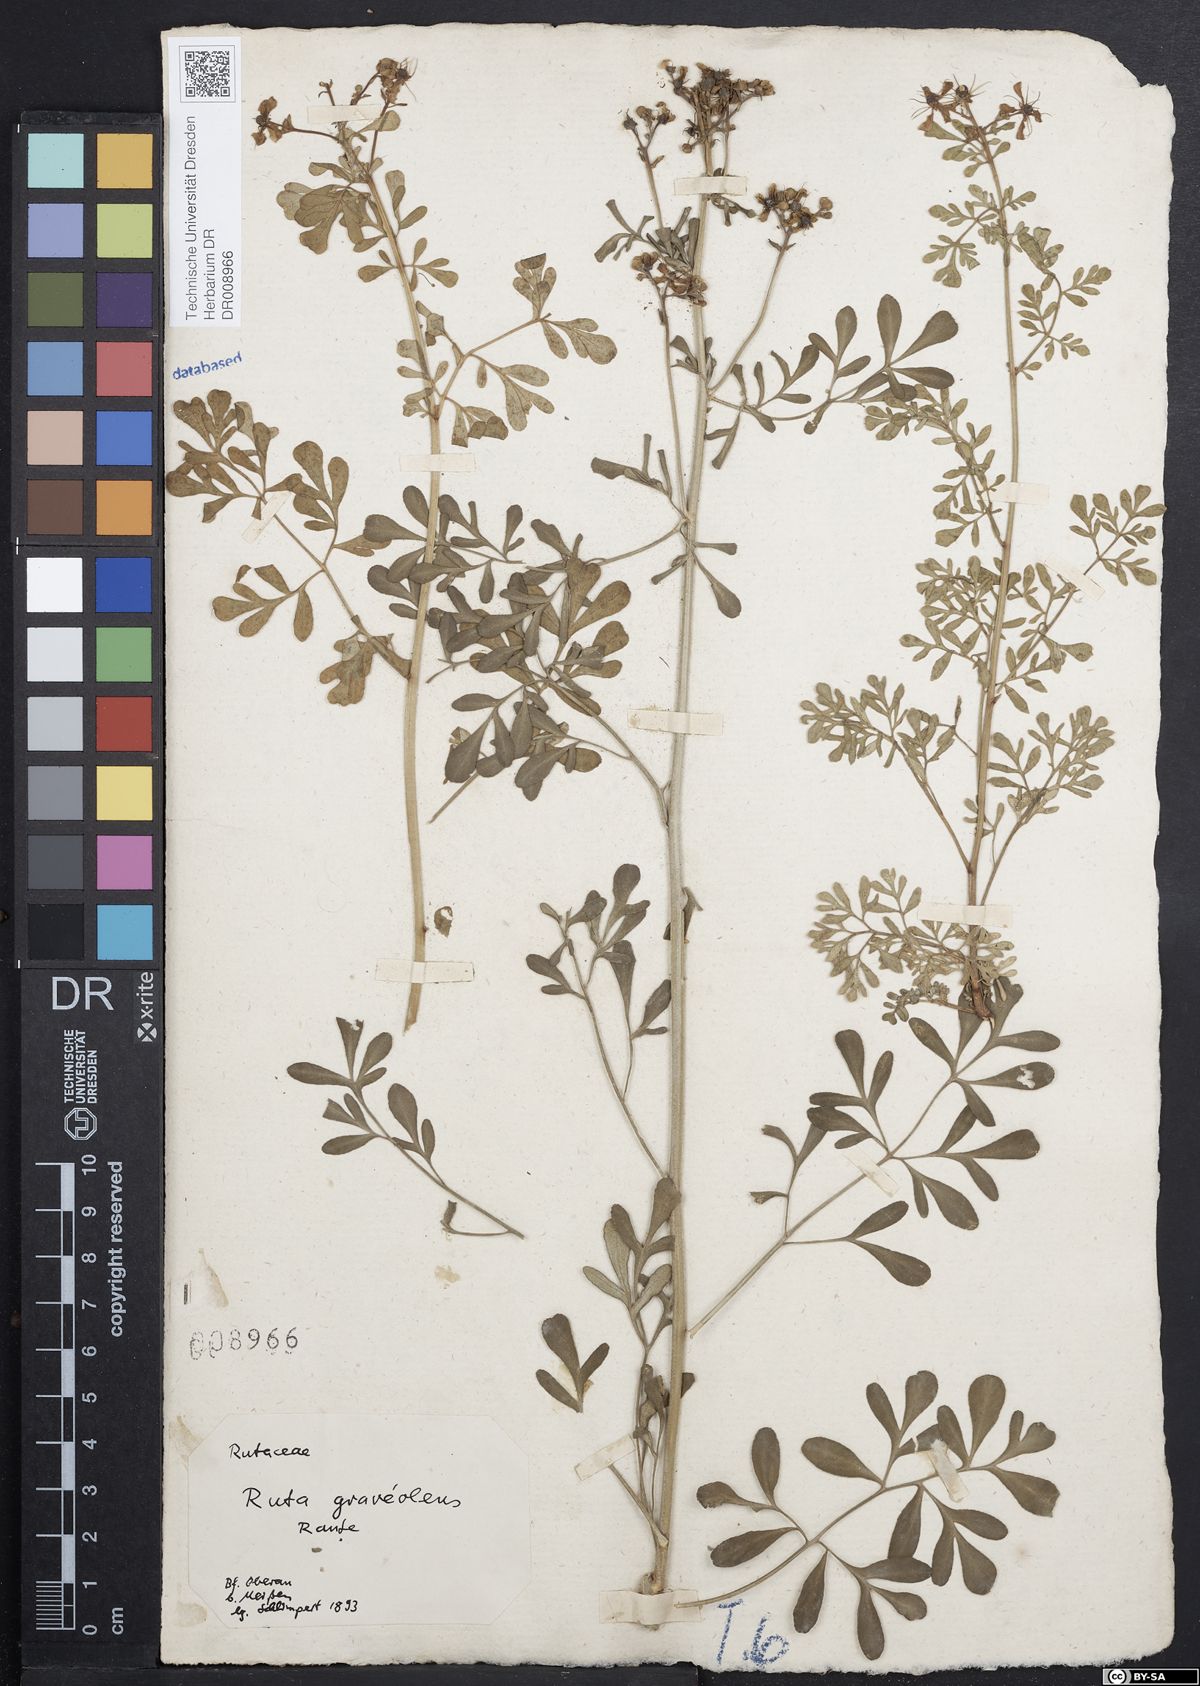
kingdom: Plantae
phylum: Tracheophyta
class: Magnoliopsida
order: Sapindales
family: Rutaceae
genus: Ruta
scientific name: Ruta graveolens
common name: Common rue
